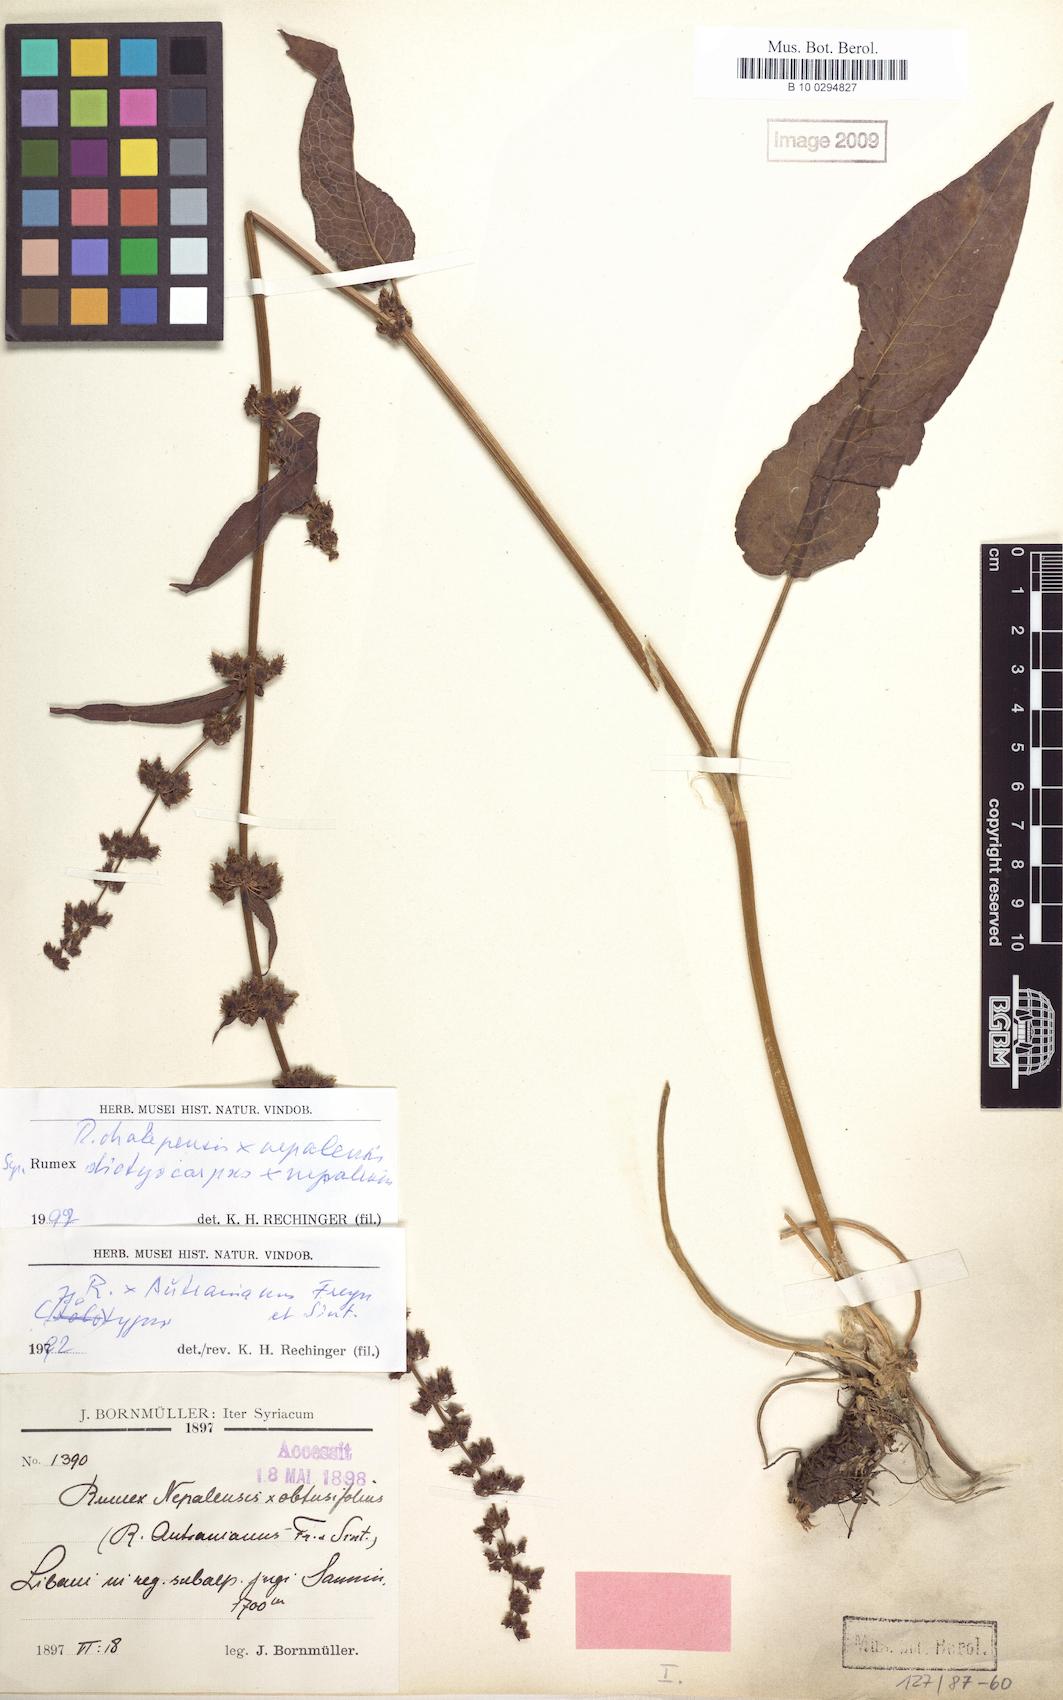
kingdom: Plantae
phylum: Tracheophyta
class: Magnoliopsida
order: Caryophyllales
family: Polygonaceae
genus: Rumex
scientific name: Rumex chalepensis
